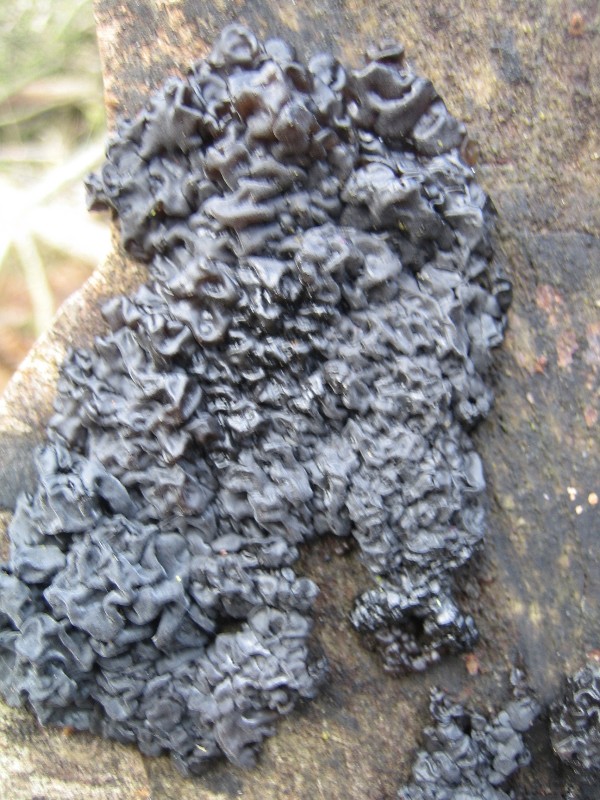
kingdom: Fungi
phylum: Basidiomycota
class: Agaricomycetes
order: Auriculariales
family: Auriculariaceae
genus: Exidia
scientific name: Exidia nigricans
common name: almindelig bævretop
